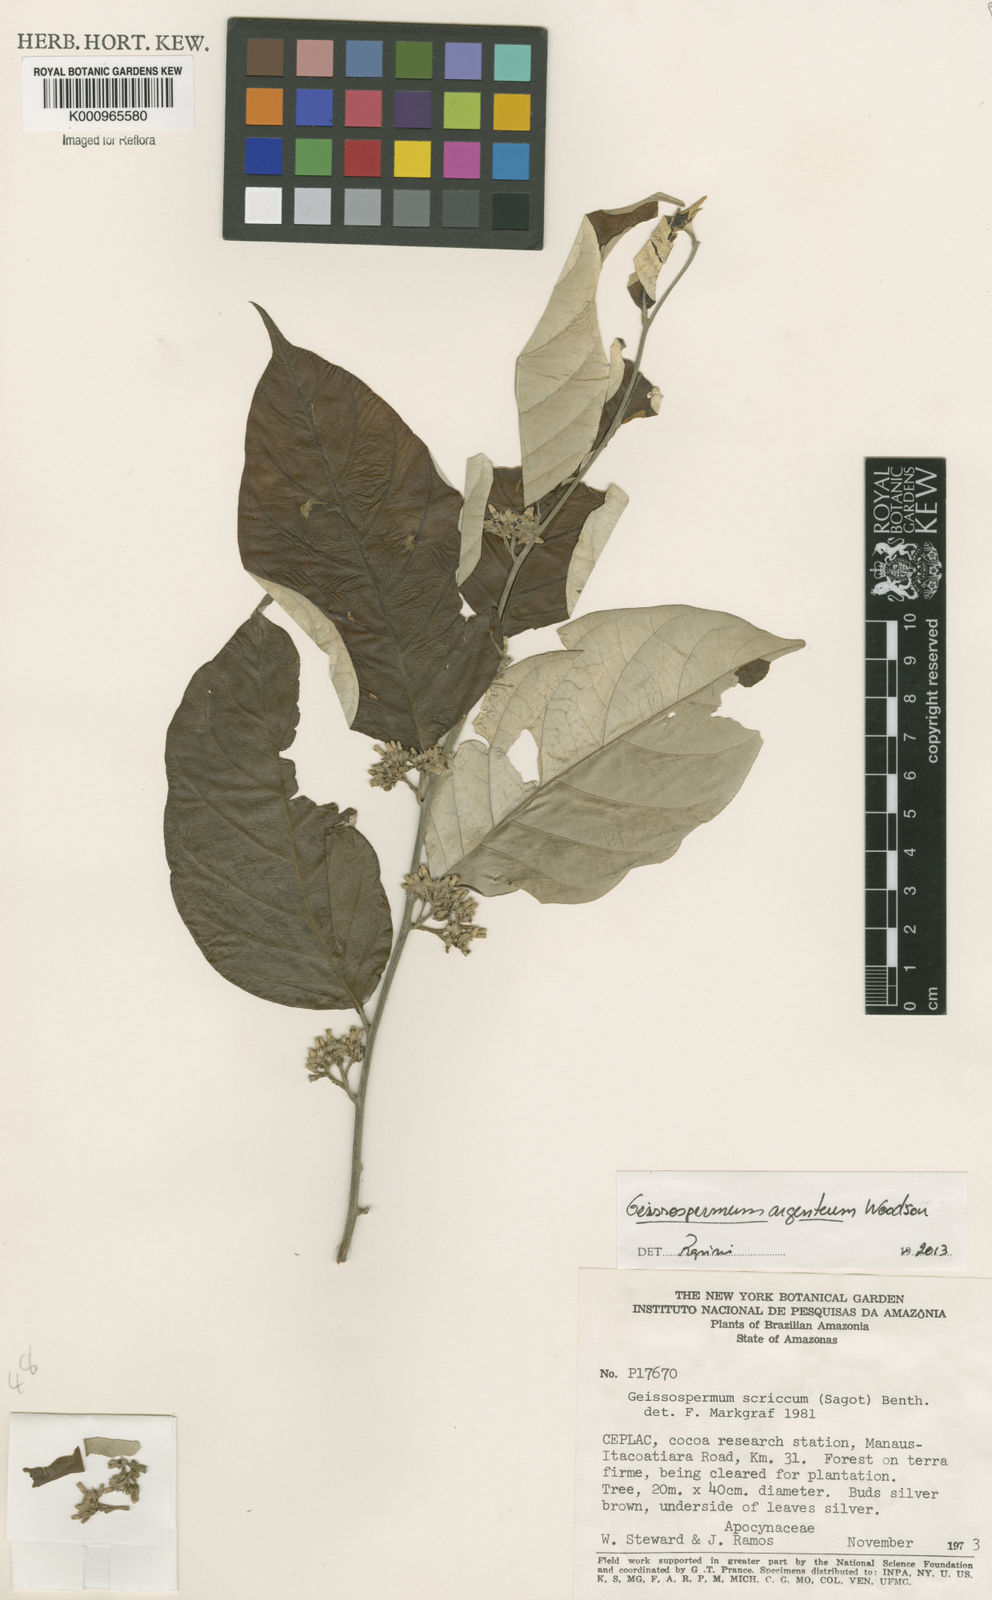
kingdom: Plantae
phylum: Tracheophyta
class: Magnoliopsida
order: Gentianales
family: Apocynaceae
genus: Geissospermum
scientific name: Geissospermum argenteum
